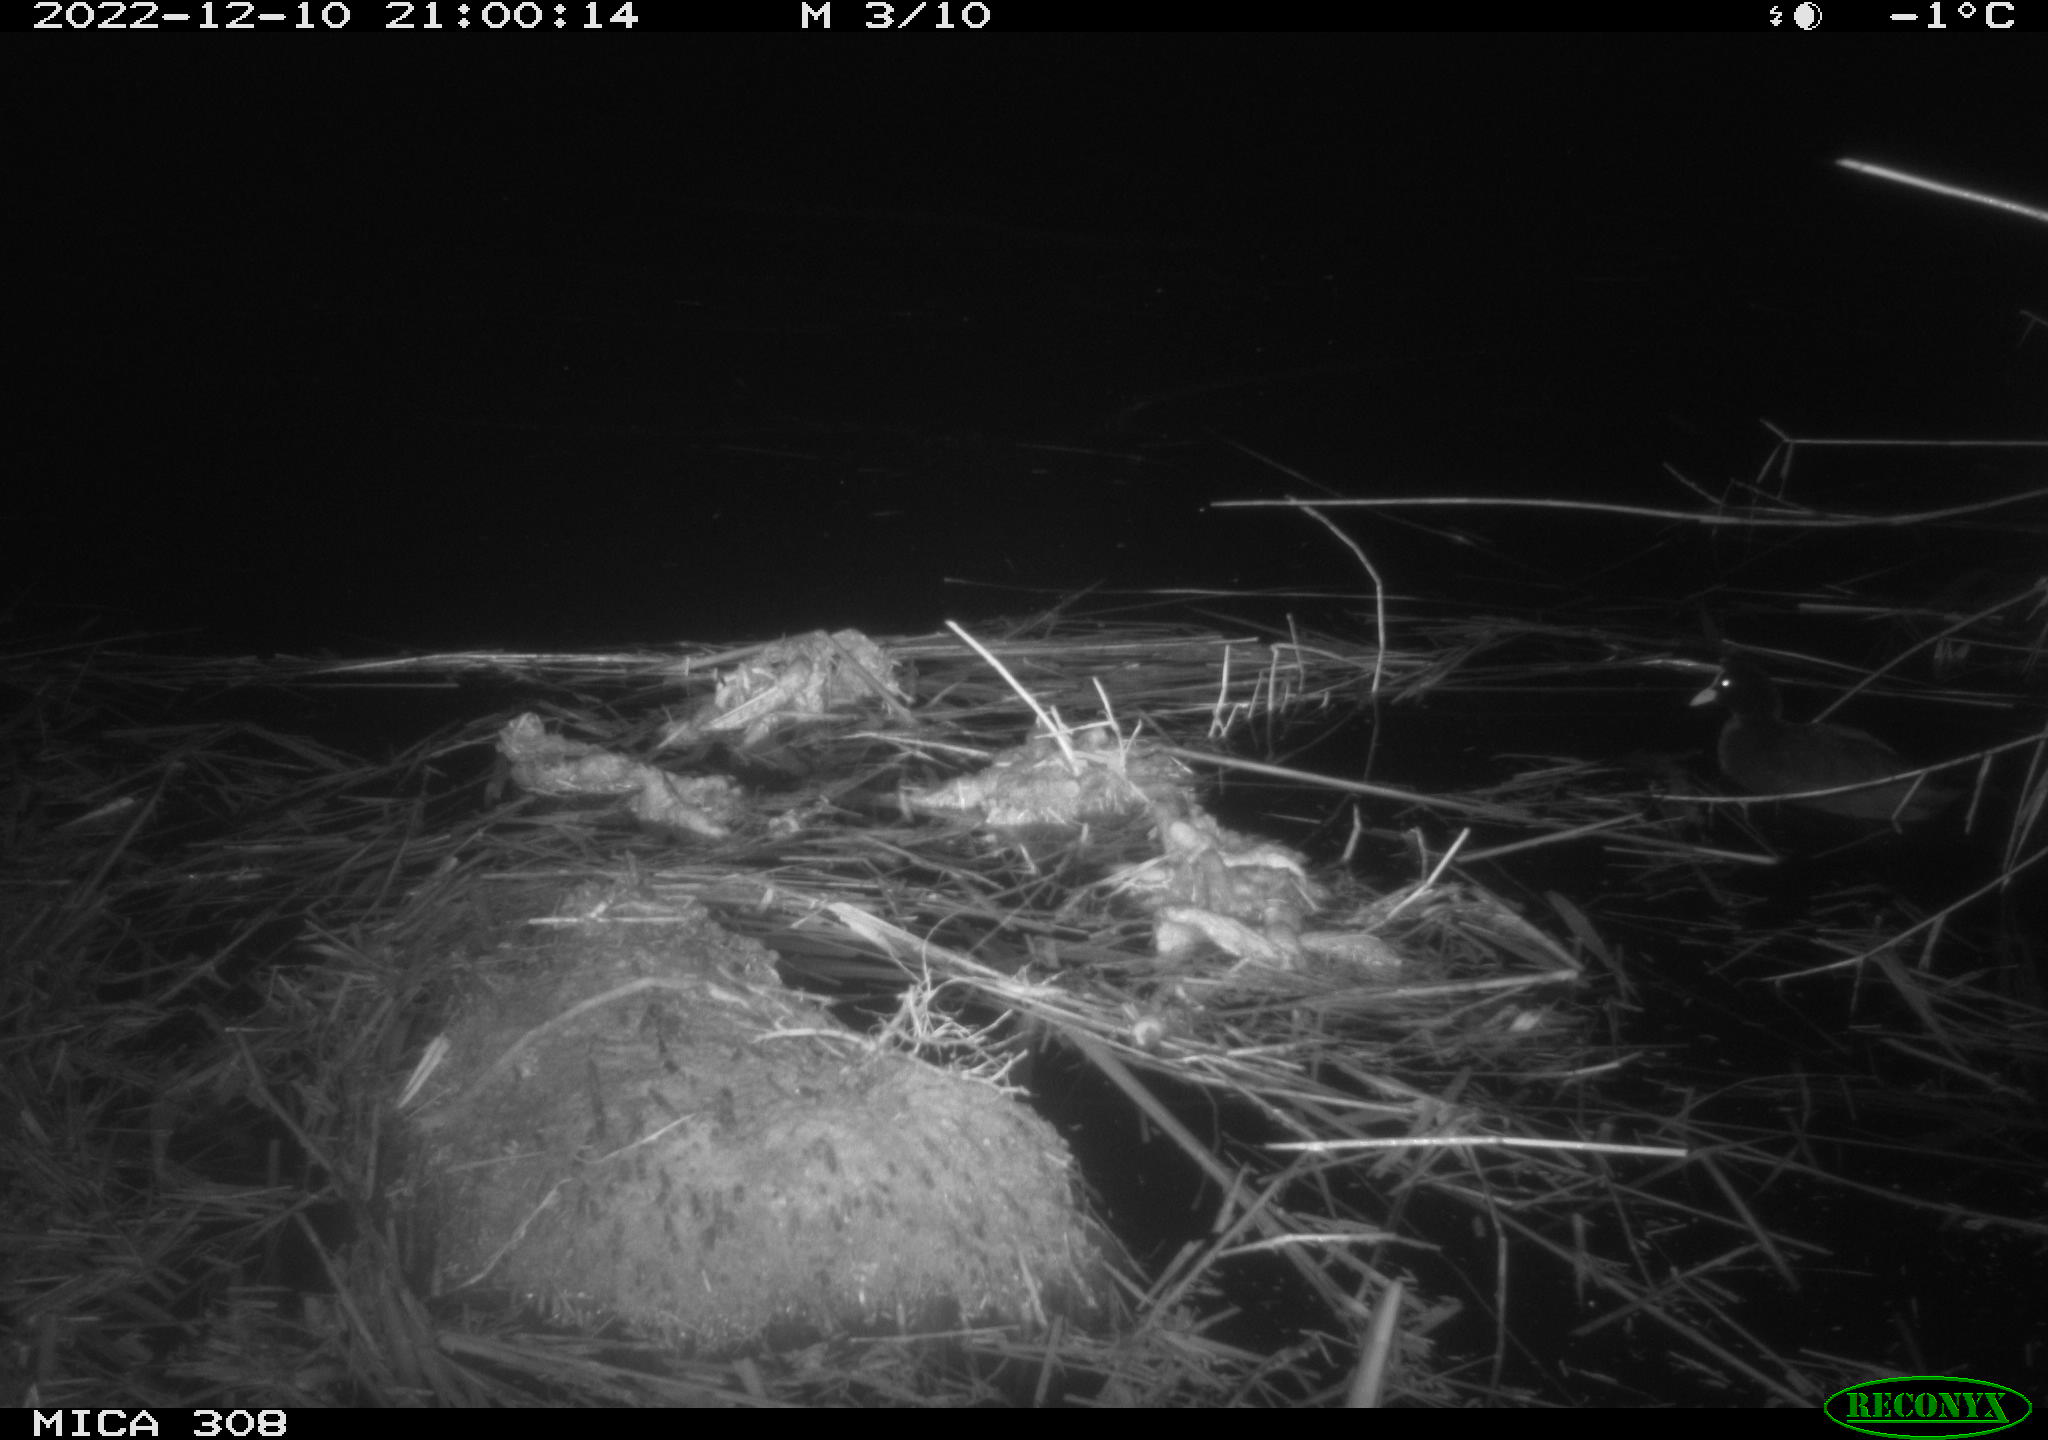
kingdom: Animalia
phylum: Chordata
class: Aves
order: Anseriformes
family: Anatidae
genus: Anas
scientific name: Anas
